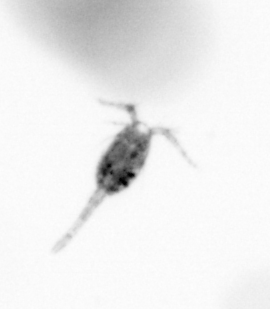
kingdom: Animalia
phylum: Arthropoda
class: Copepoda
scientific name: Copepoda
